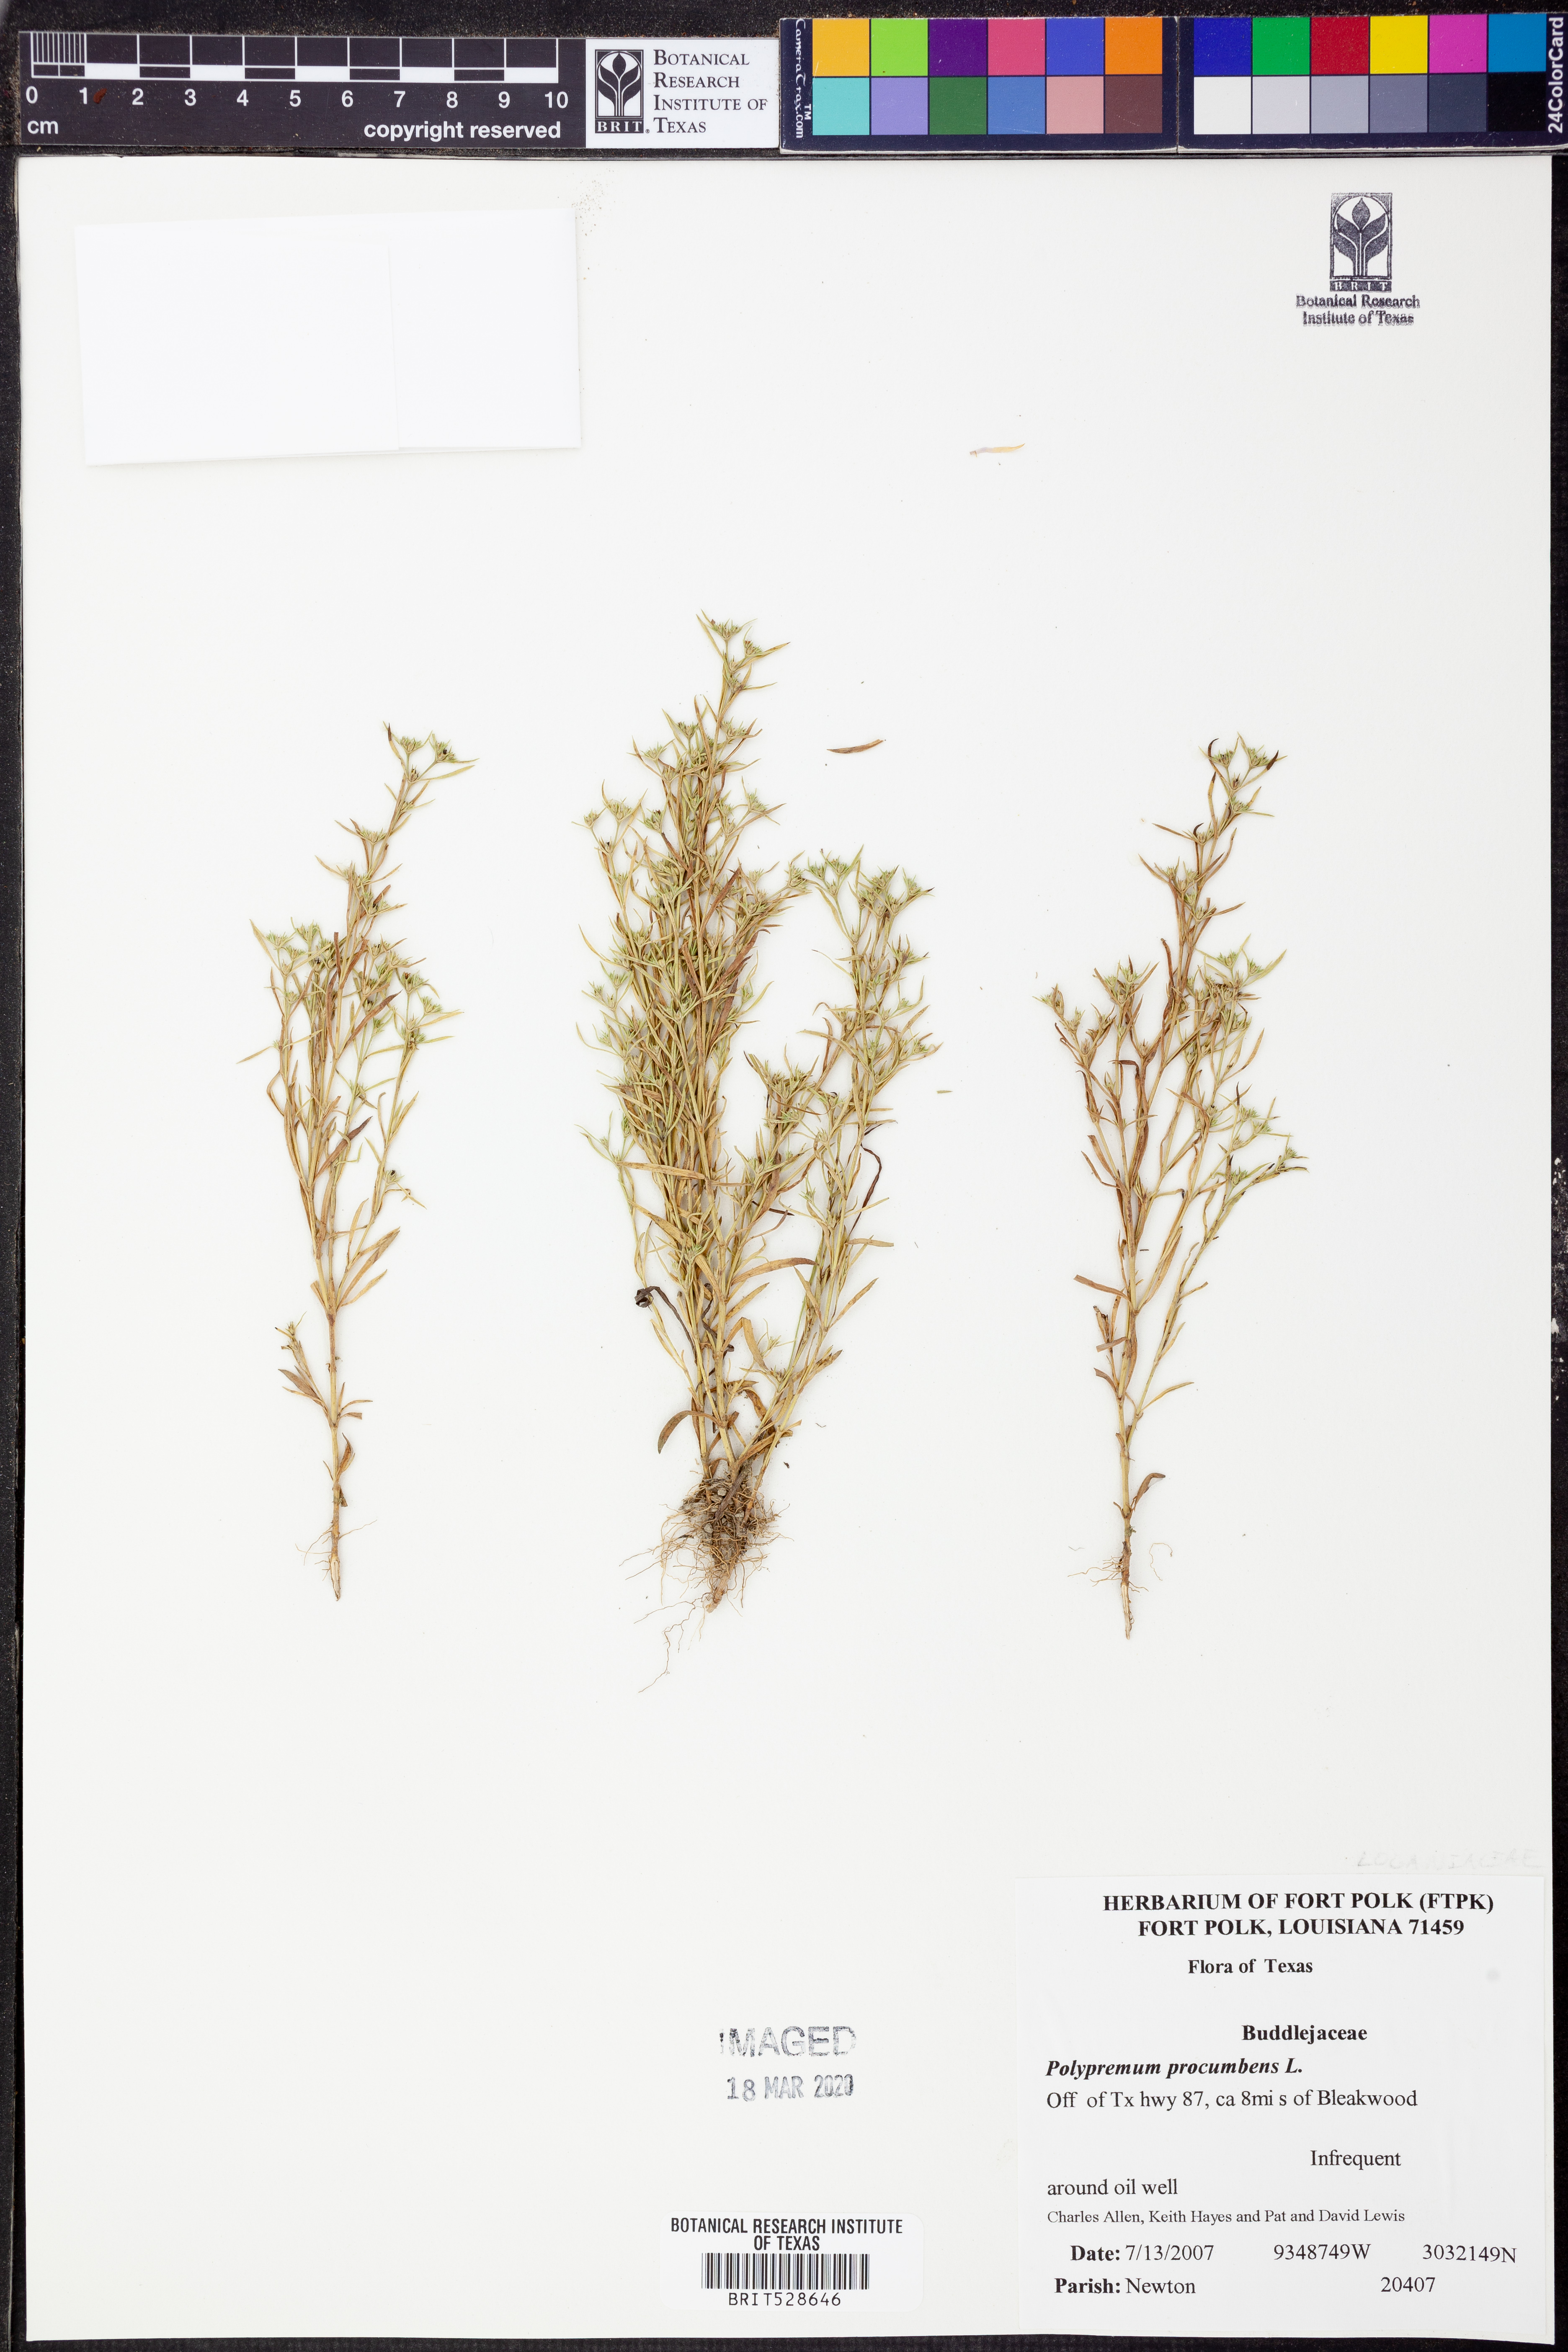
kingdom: Plantae
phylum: Tracheophyta
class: Magnoliopsida
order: Lamiales
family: Tetrachondraceae
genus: Polypremum
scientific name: Polypremum procumbens
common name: Juniper-leaf
